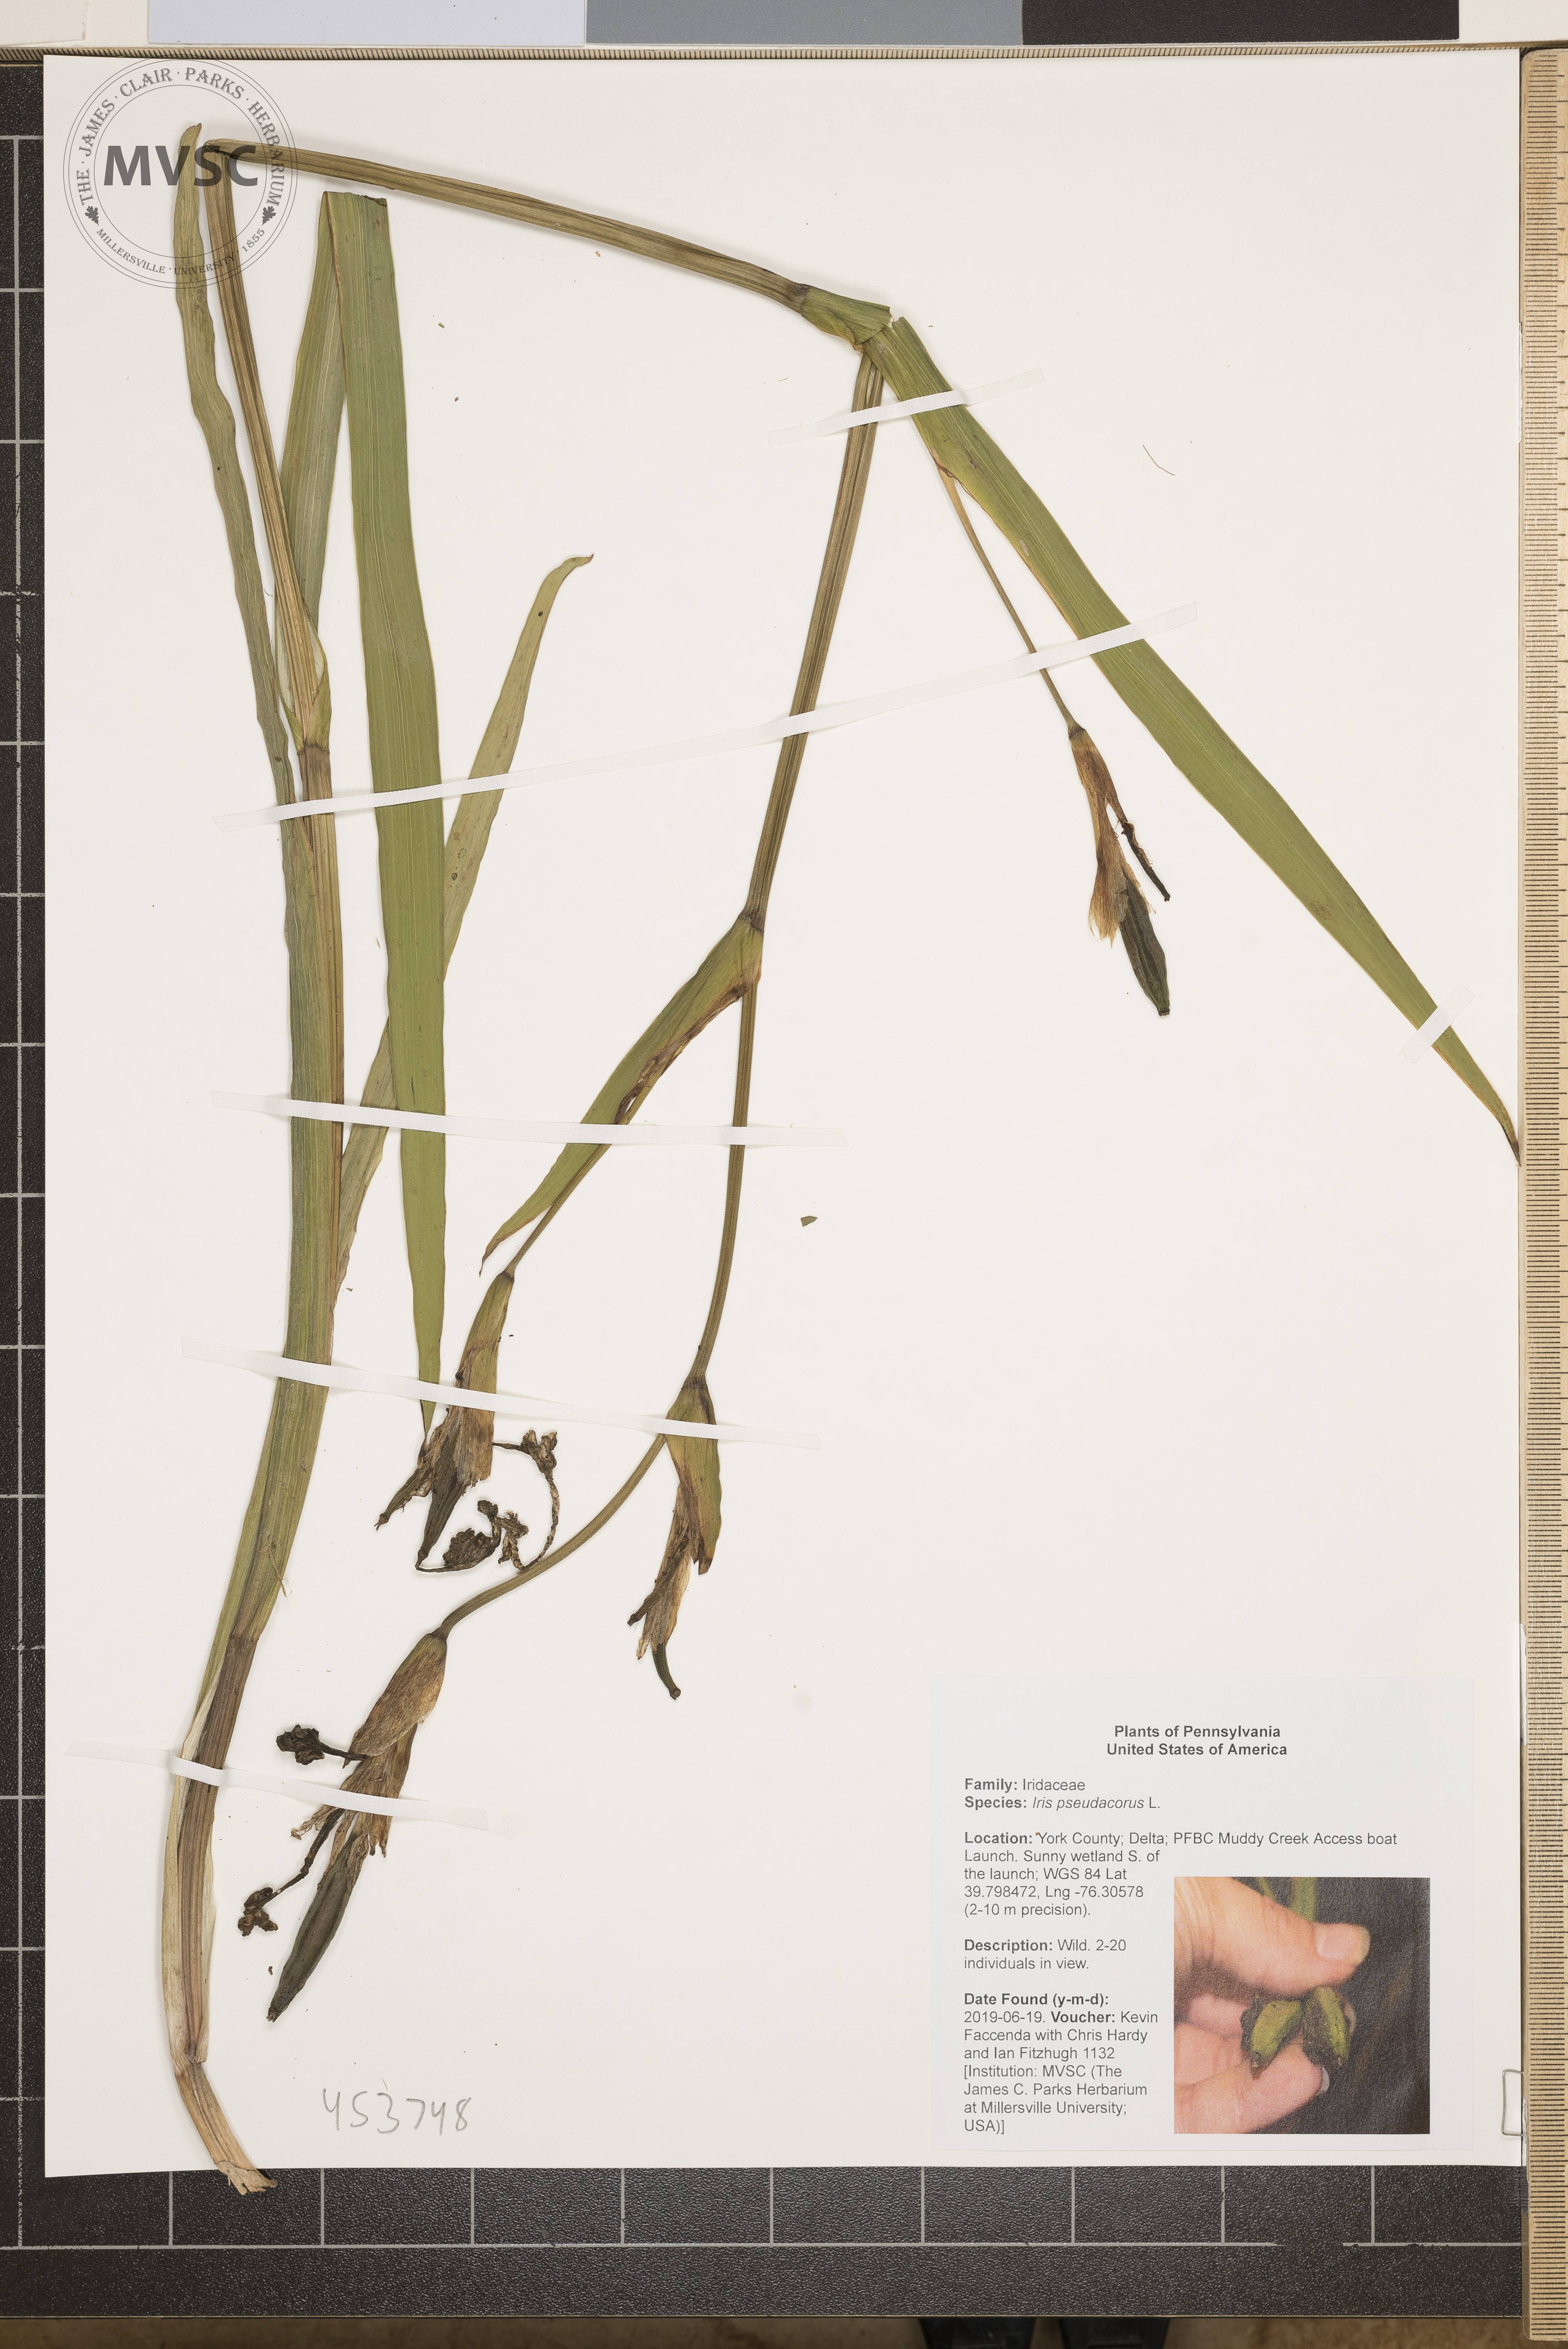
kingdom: Plantae
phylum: Tracheophyta
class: Liliopsida
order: Asparagales
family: Iridaceae
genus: Iris
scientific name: Iris pseudacorus
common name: Yellow flag
